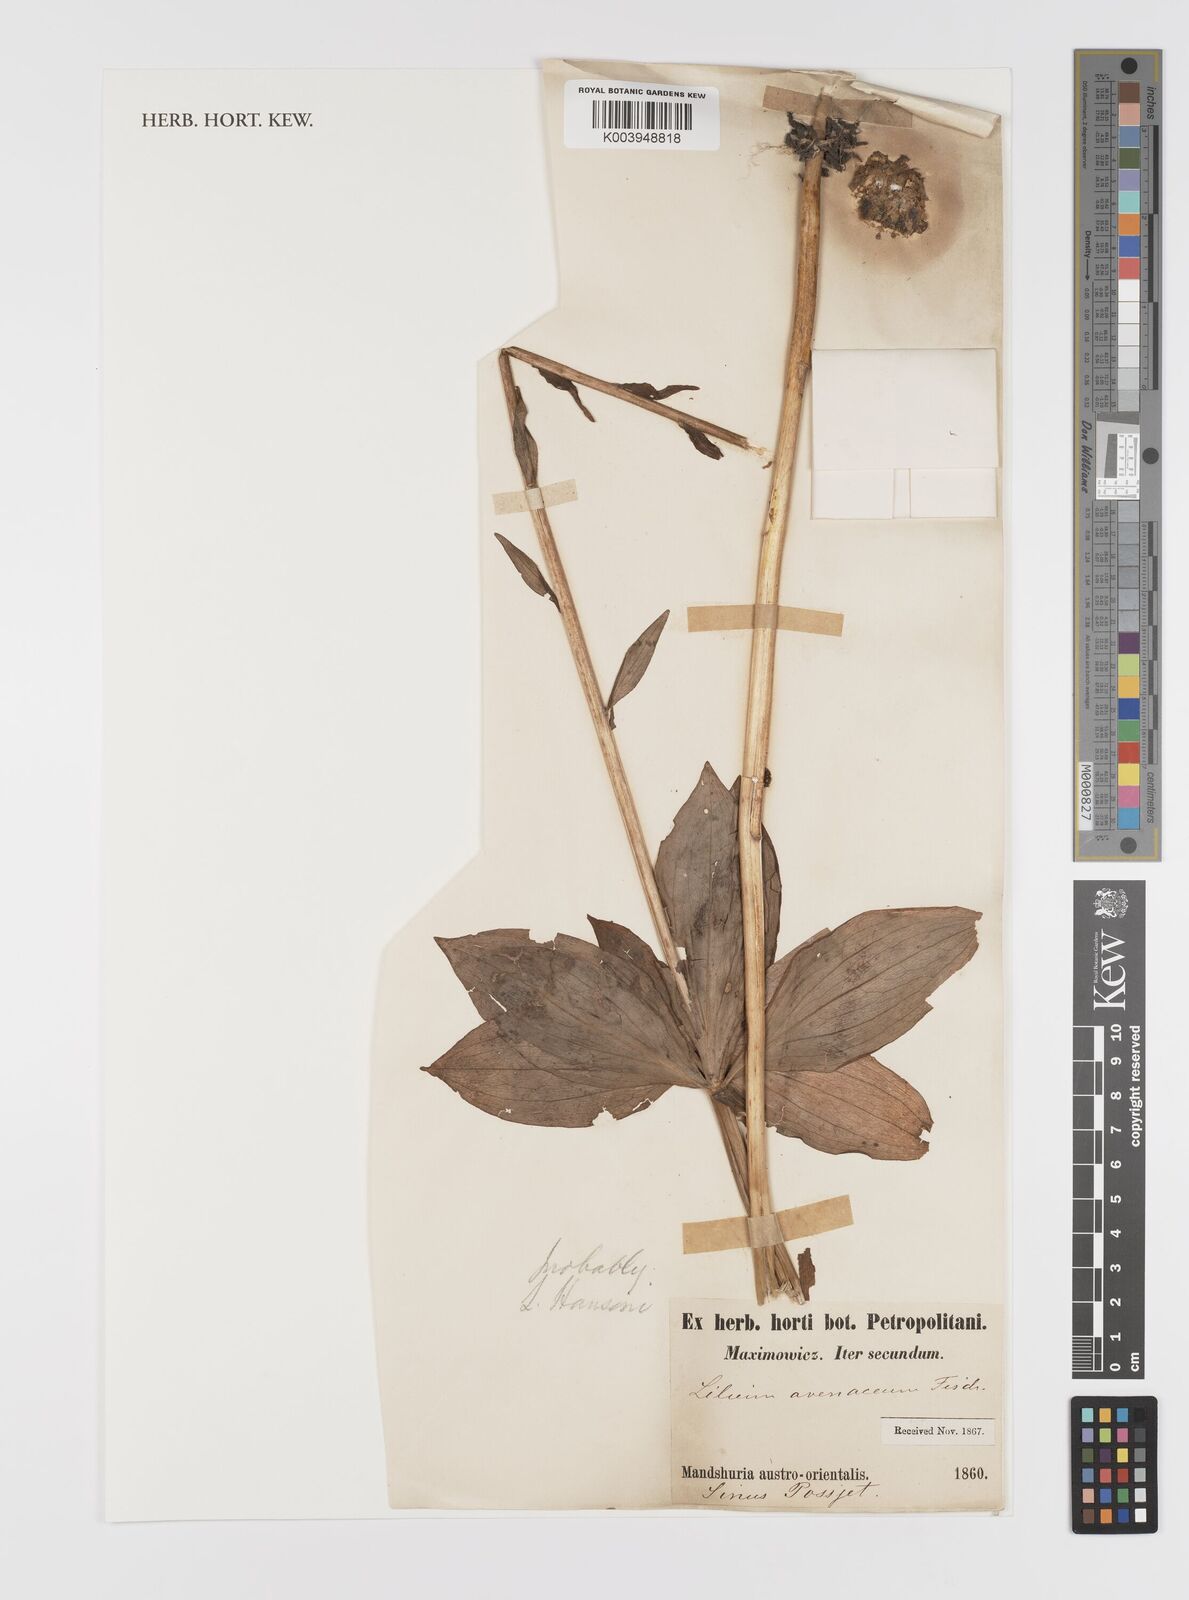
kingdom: Plantae
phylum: Tracheophyta
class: Liliopsida
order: Liliales
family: Liliaceae
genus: Lilium
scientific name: Lilium hansonii
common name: Hanson's lily
